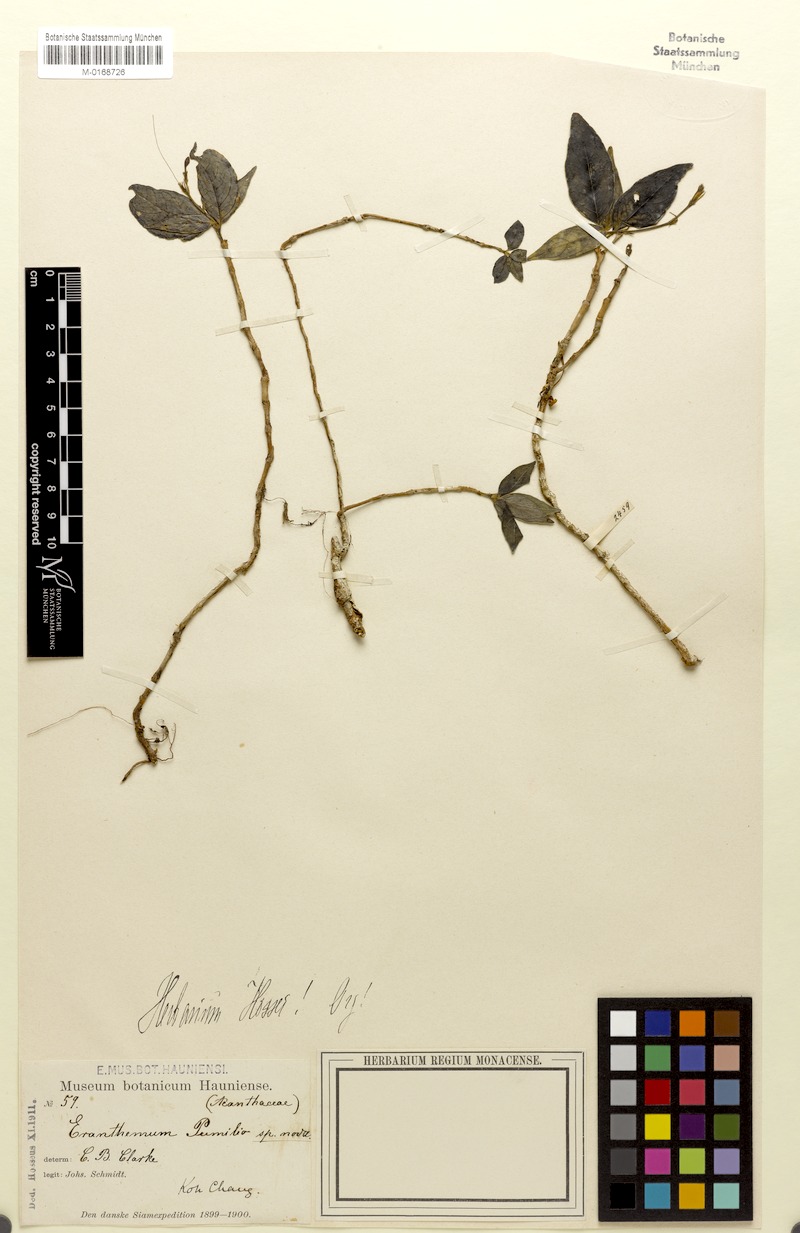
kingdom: Plantae
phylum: Tracheophyta
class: Magnoliopsida
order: Lamiales
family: Acanthaceae
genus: Pseuderanthemum
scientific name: Pseuderanthemum latifolium
